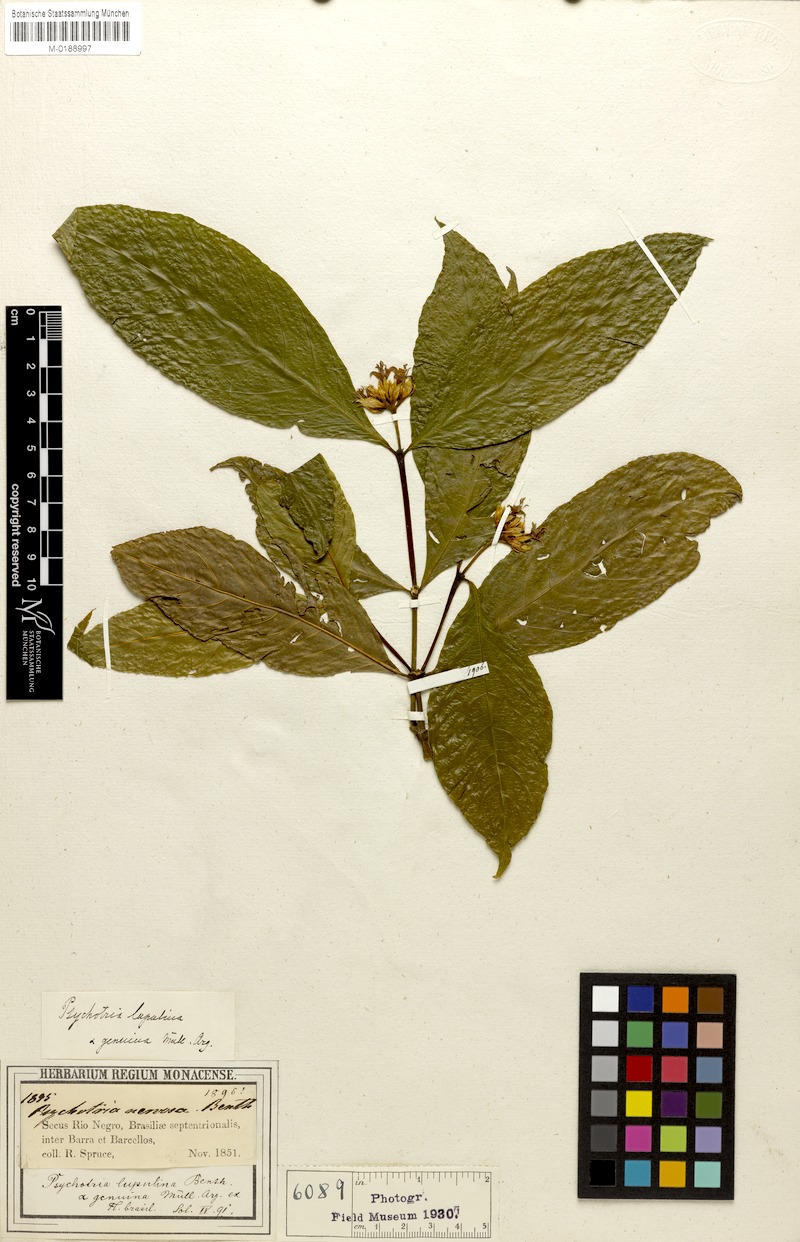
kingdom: Plantae
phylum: Tracheophyta
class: Magnoliopsida
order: Gentianales
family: Rubiaceae
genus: Palicourea
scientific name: Palicourea justiciifolia
